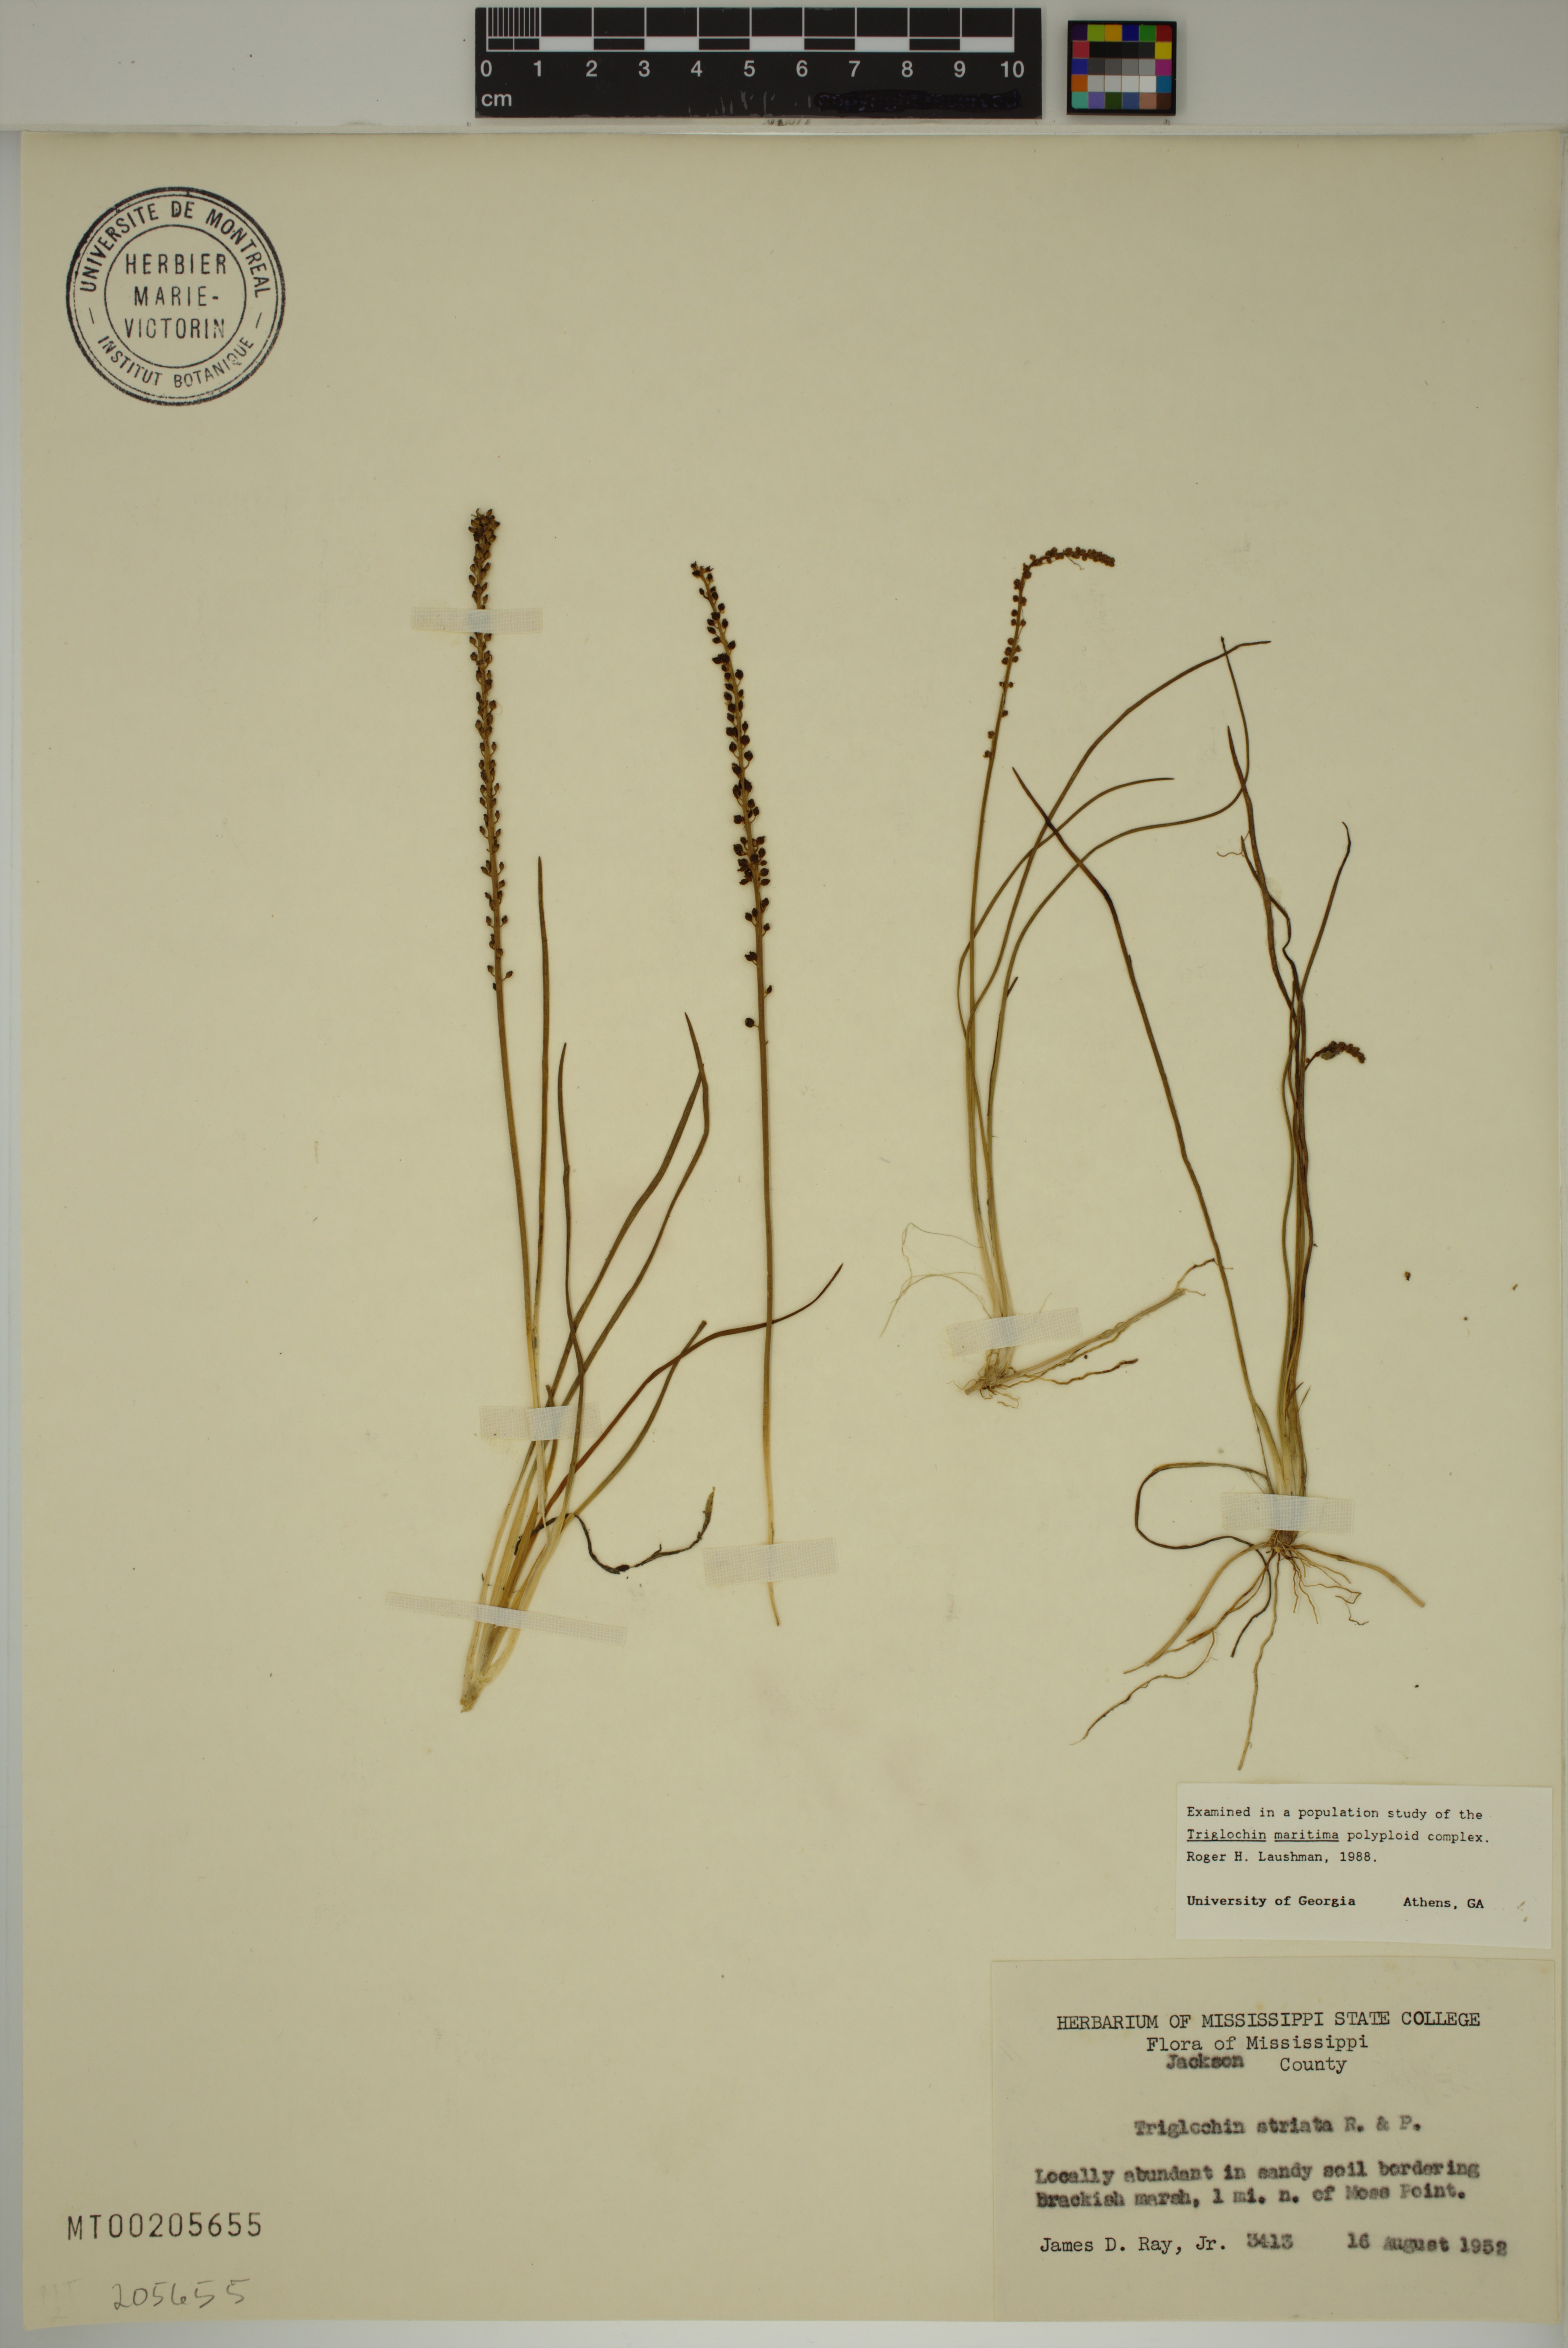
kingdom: Plantae
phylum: Tracheophyta
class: Liliopsida
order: Alismatales
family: Juncaginaceae
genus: Triglochin
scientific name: Triglochin striata
